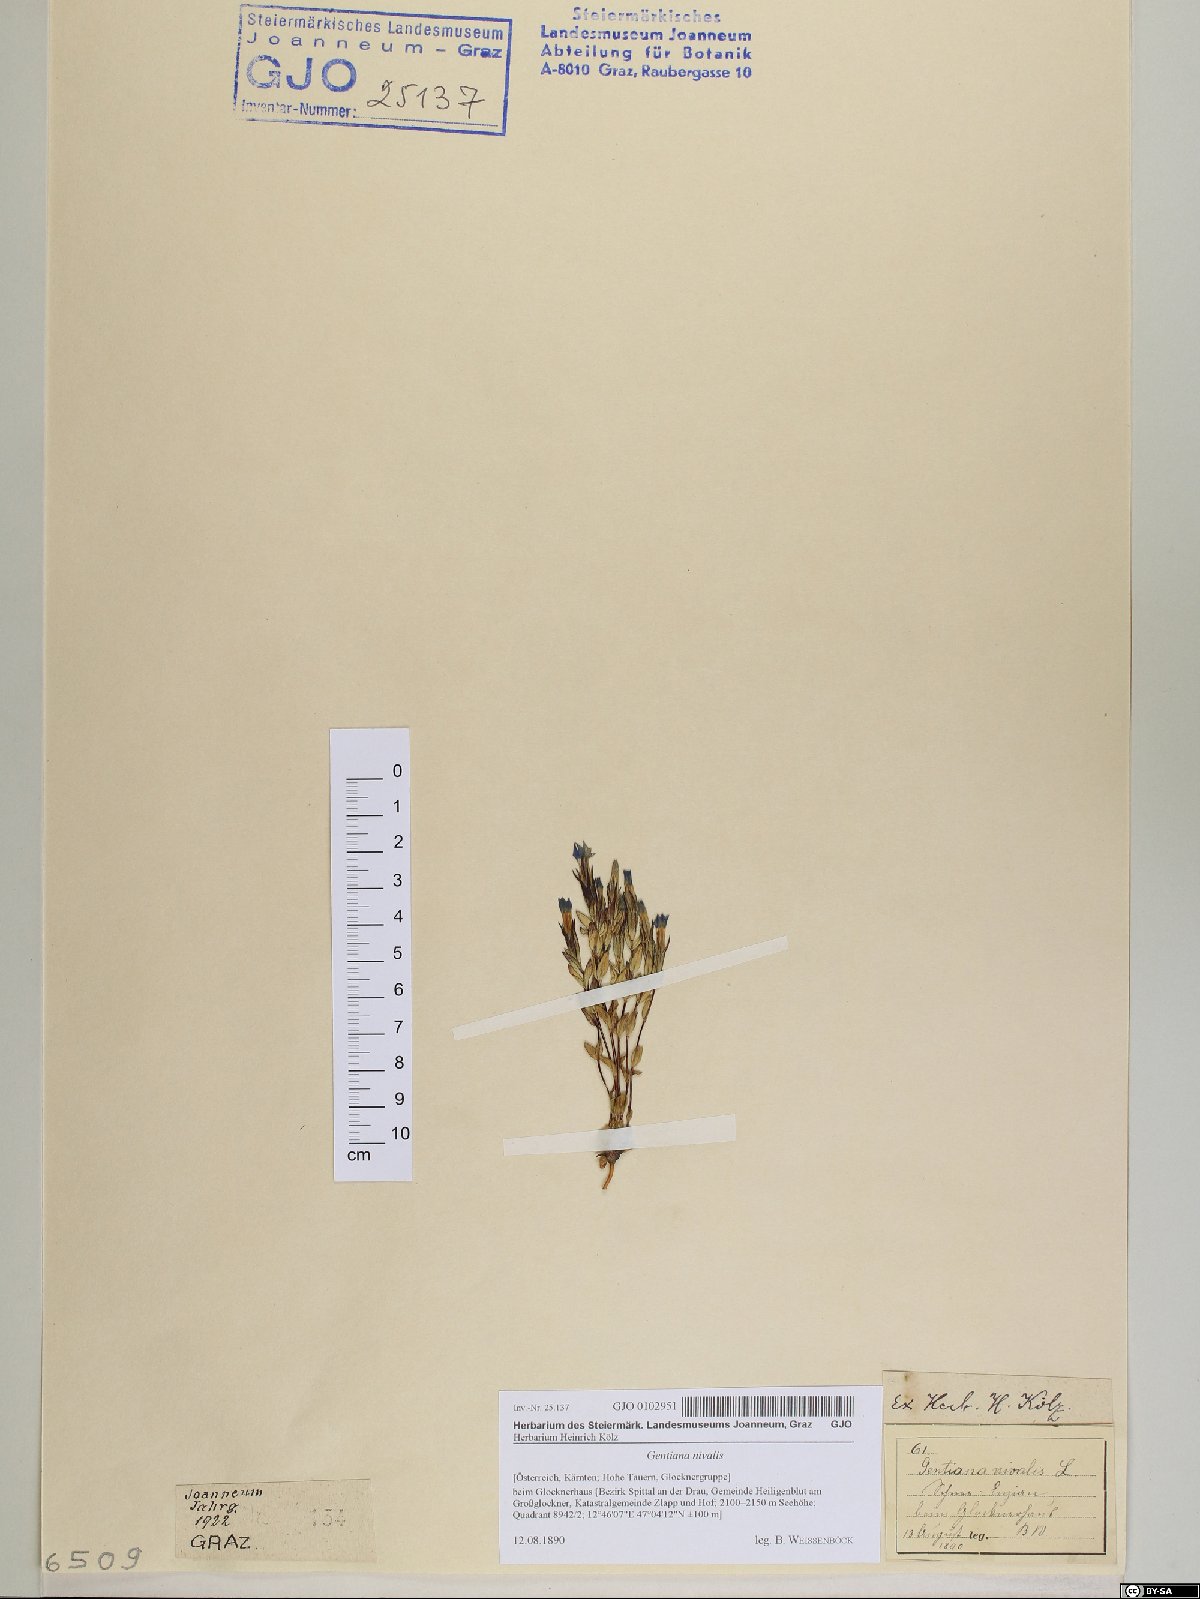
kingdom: Plantae
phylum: Tracheophyta
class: Magnoliopsida
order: Gentianales
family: Gentianaceae
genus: Gentiana
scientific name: Gentiana nivalis
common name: Alpine gentian
